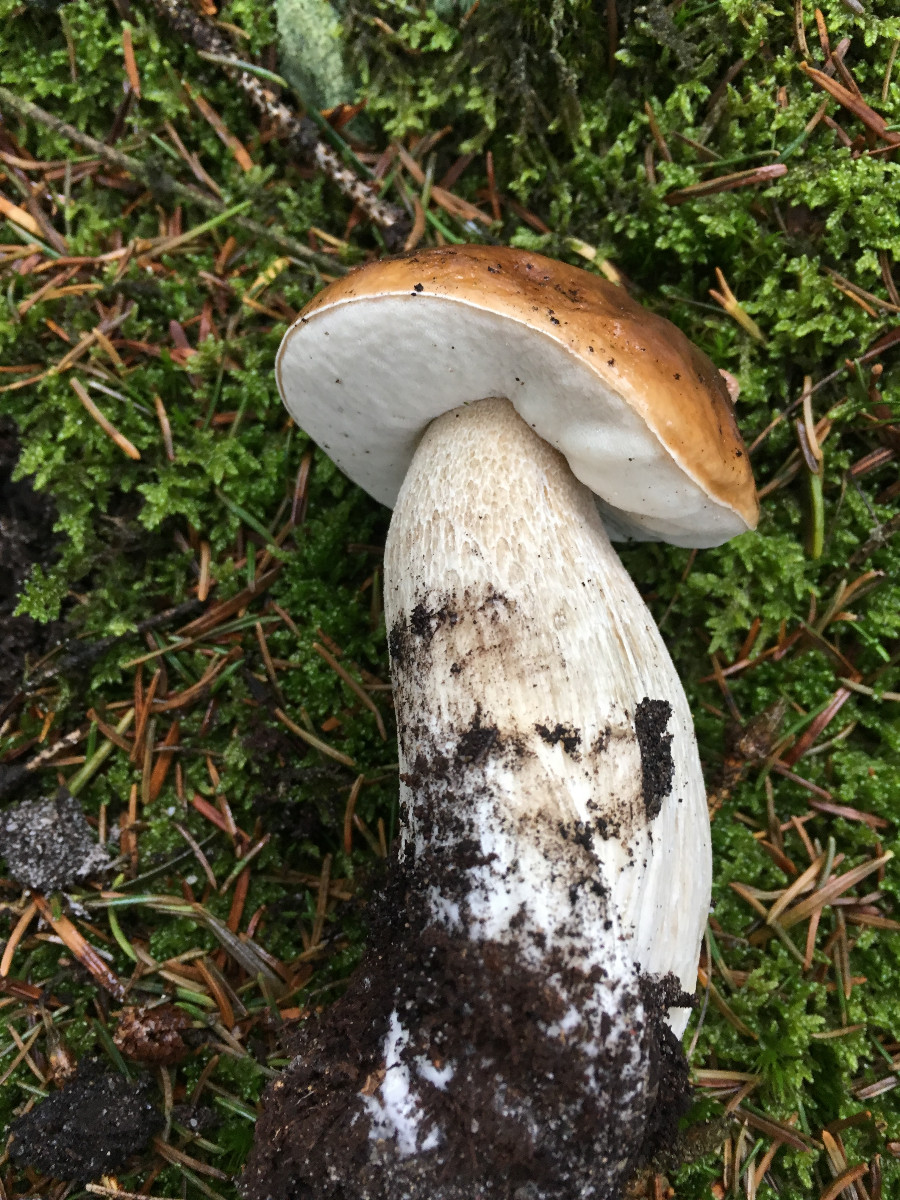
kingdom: Fungi
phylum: Basidiomycota
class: Agaricomycetes
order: Boletales
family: Boletaceae
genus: Boletus
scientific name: Boletus edulis
